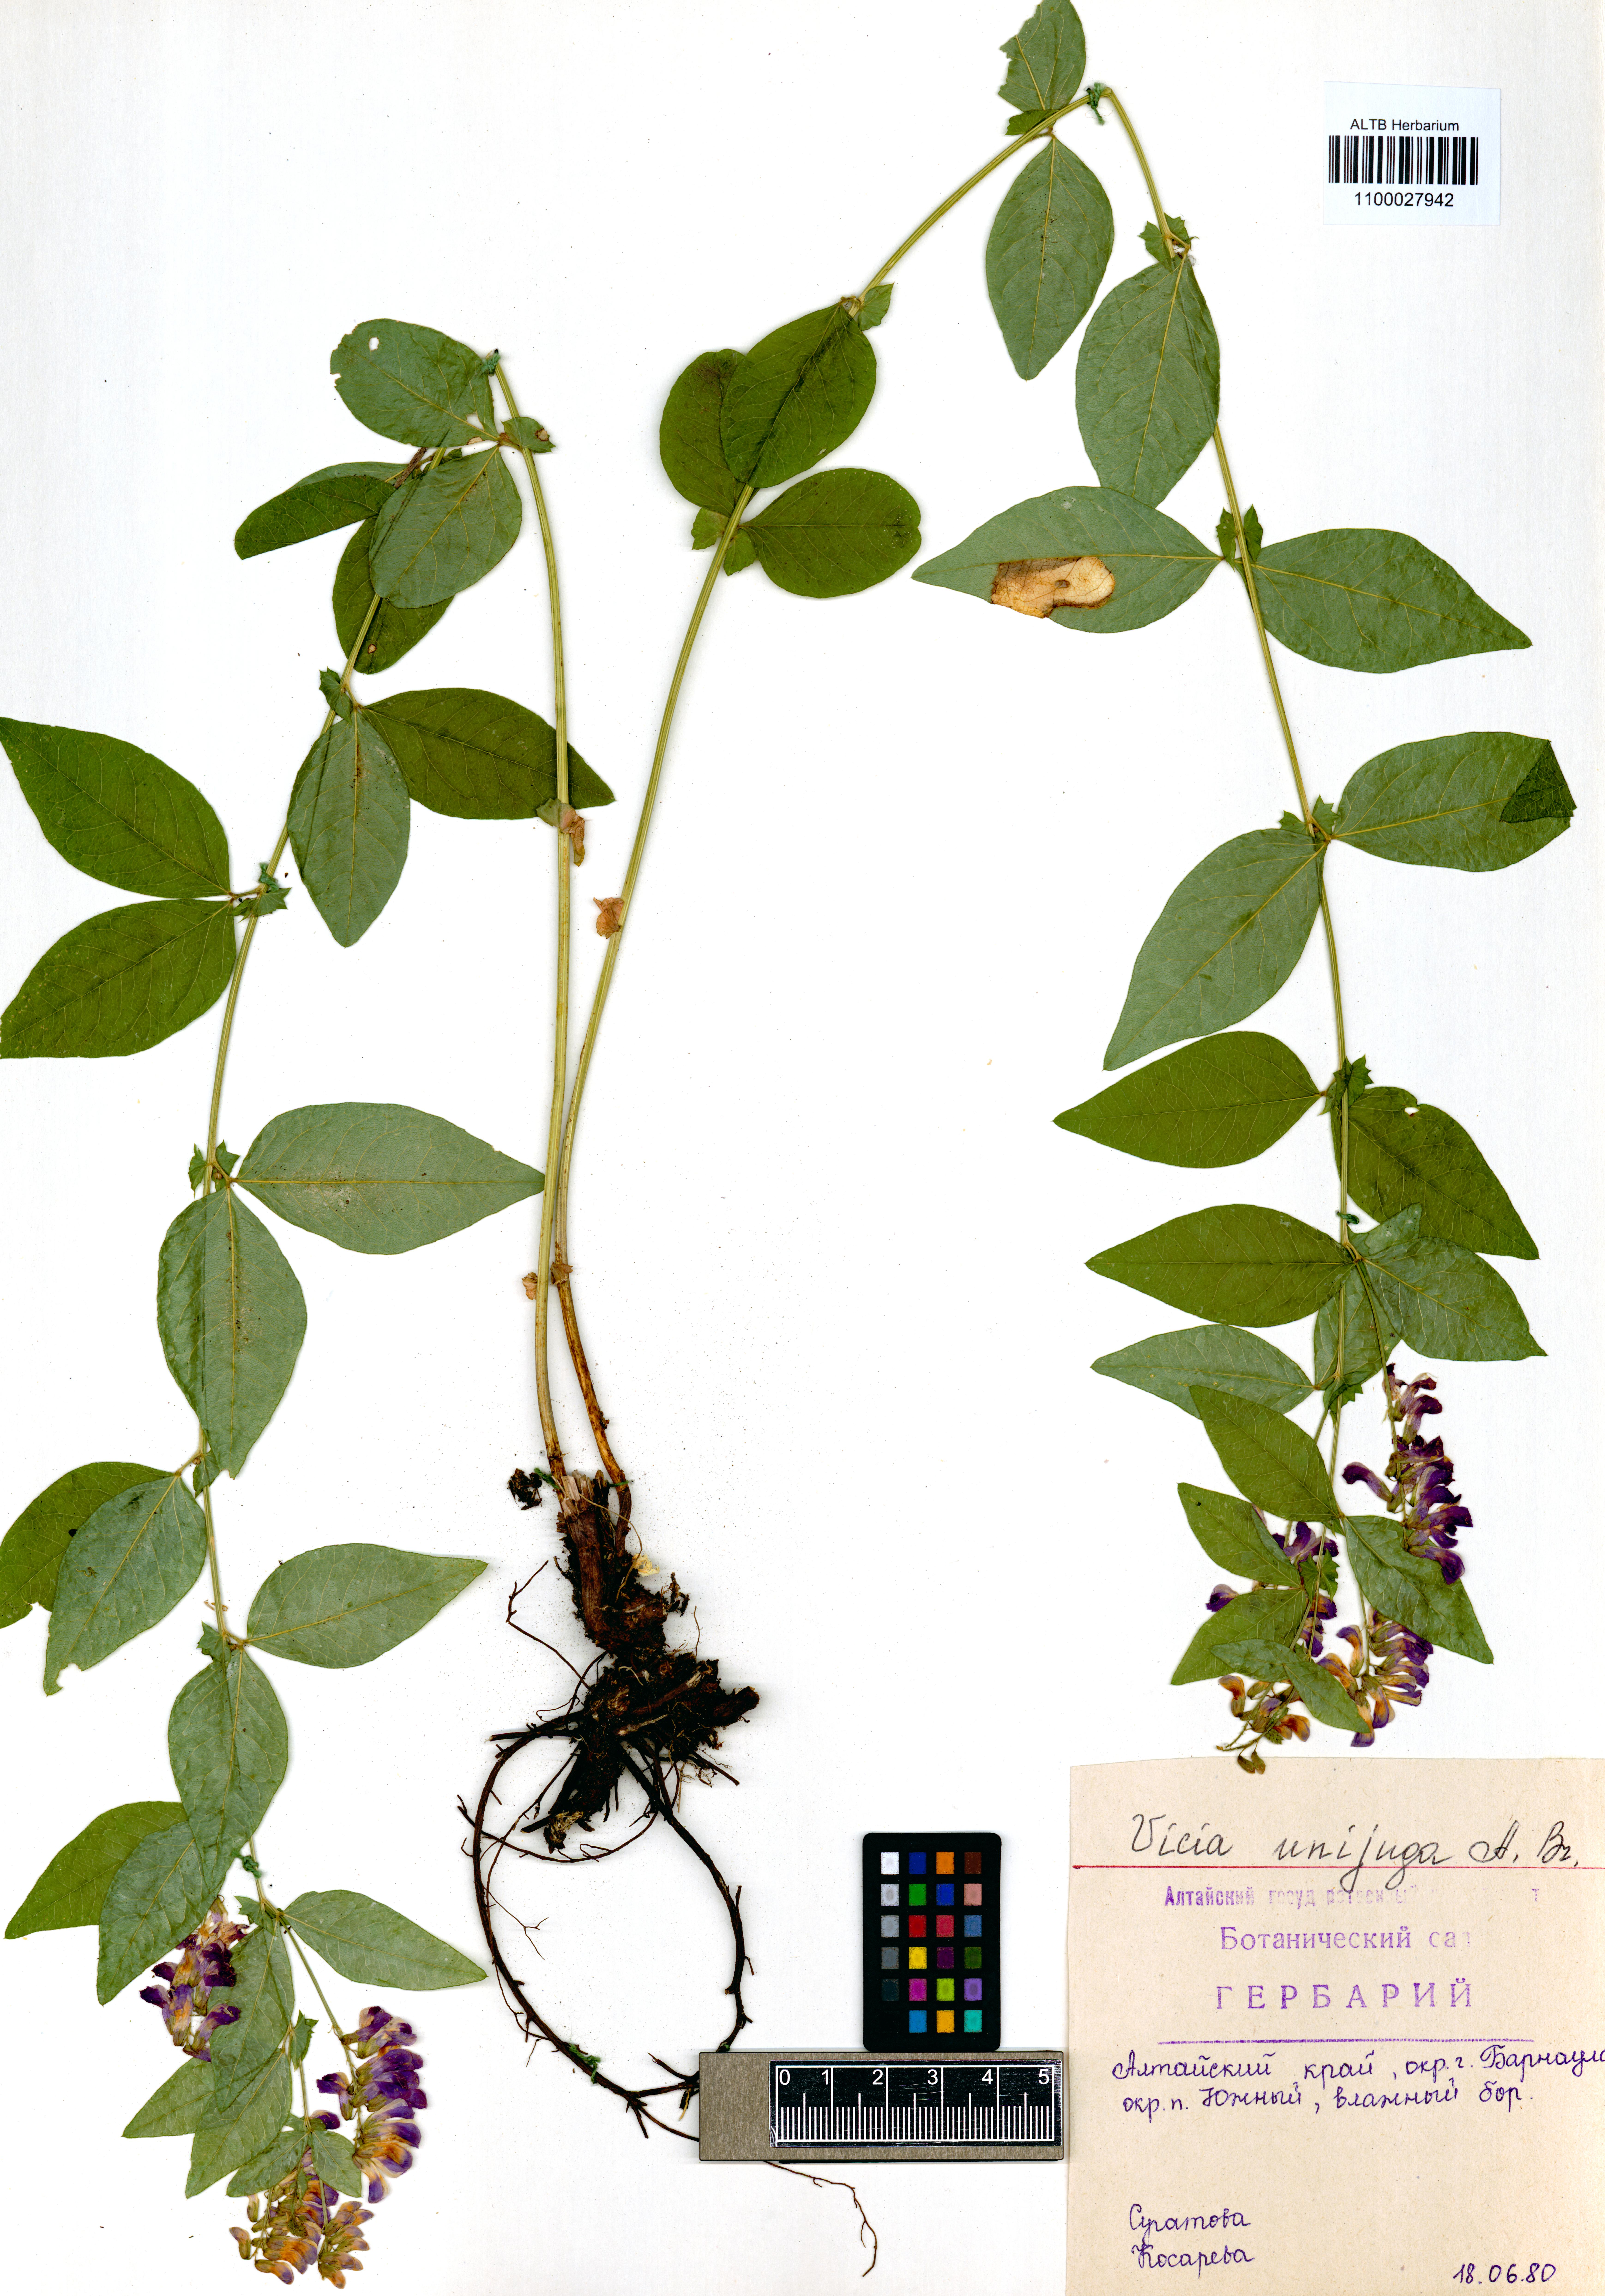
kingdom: Plantae
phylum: Tracheophyta
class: Magnoliopsida
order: Fabales
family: Fabaceae
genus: Vicia
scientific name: Vicia unijuga
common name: Two-leaf vetch
